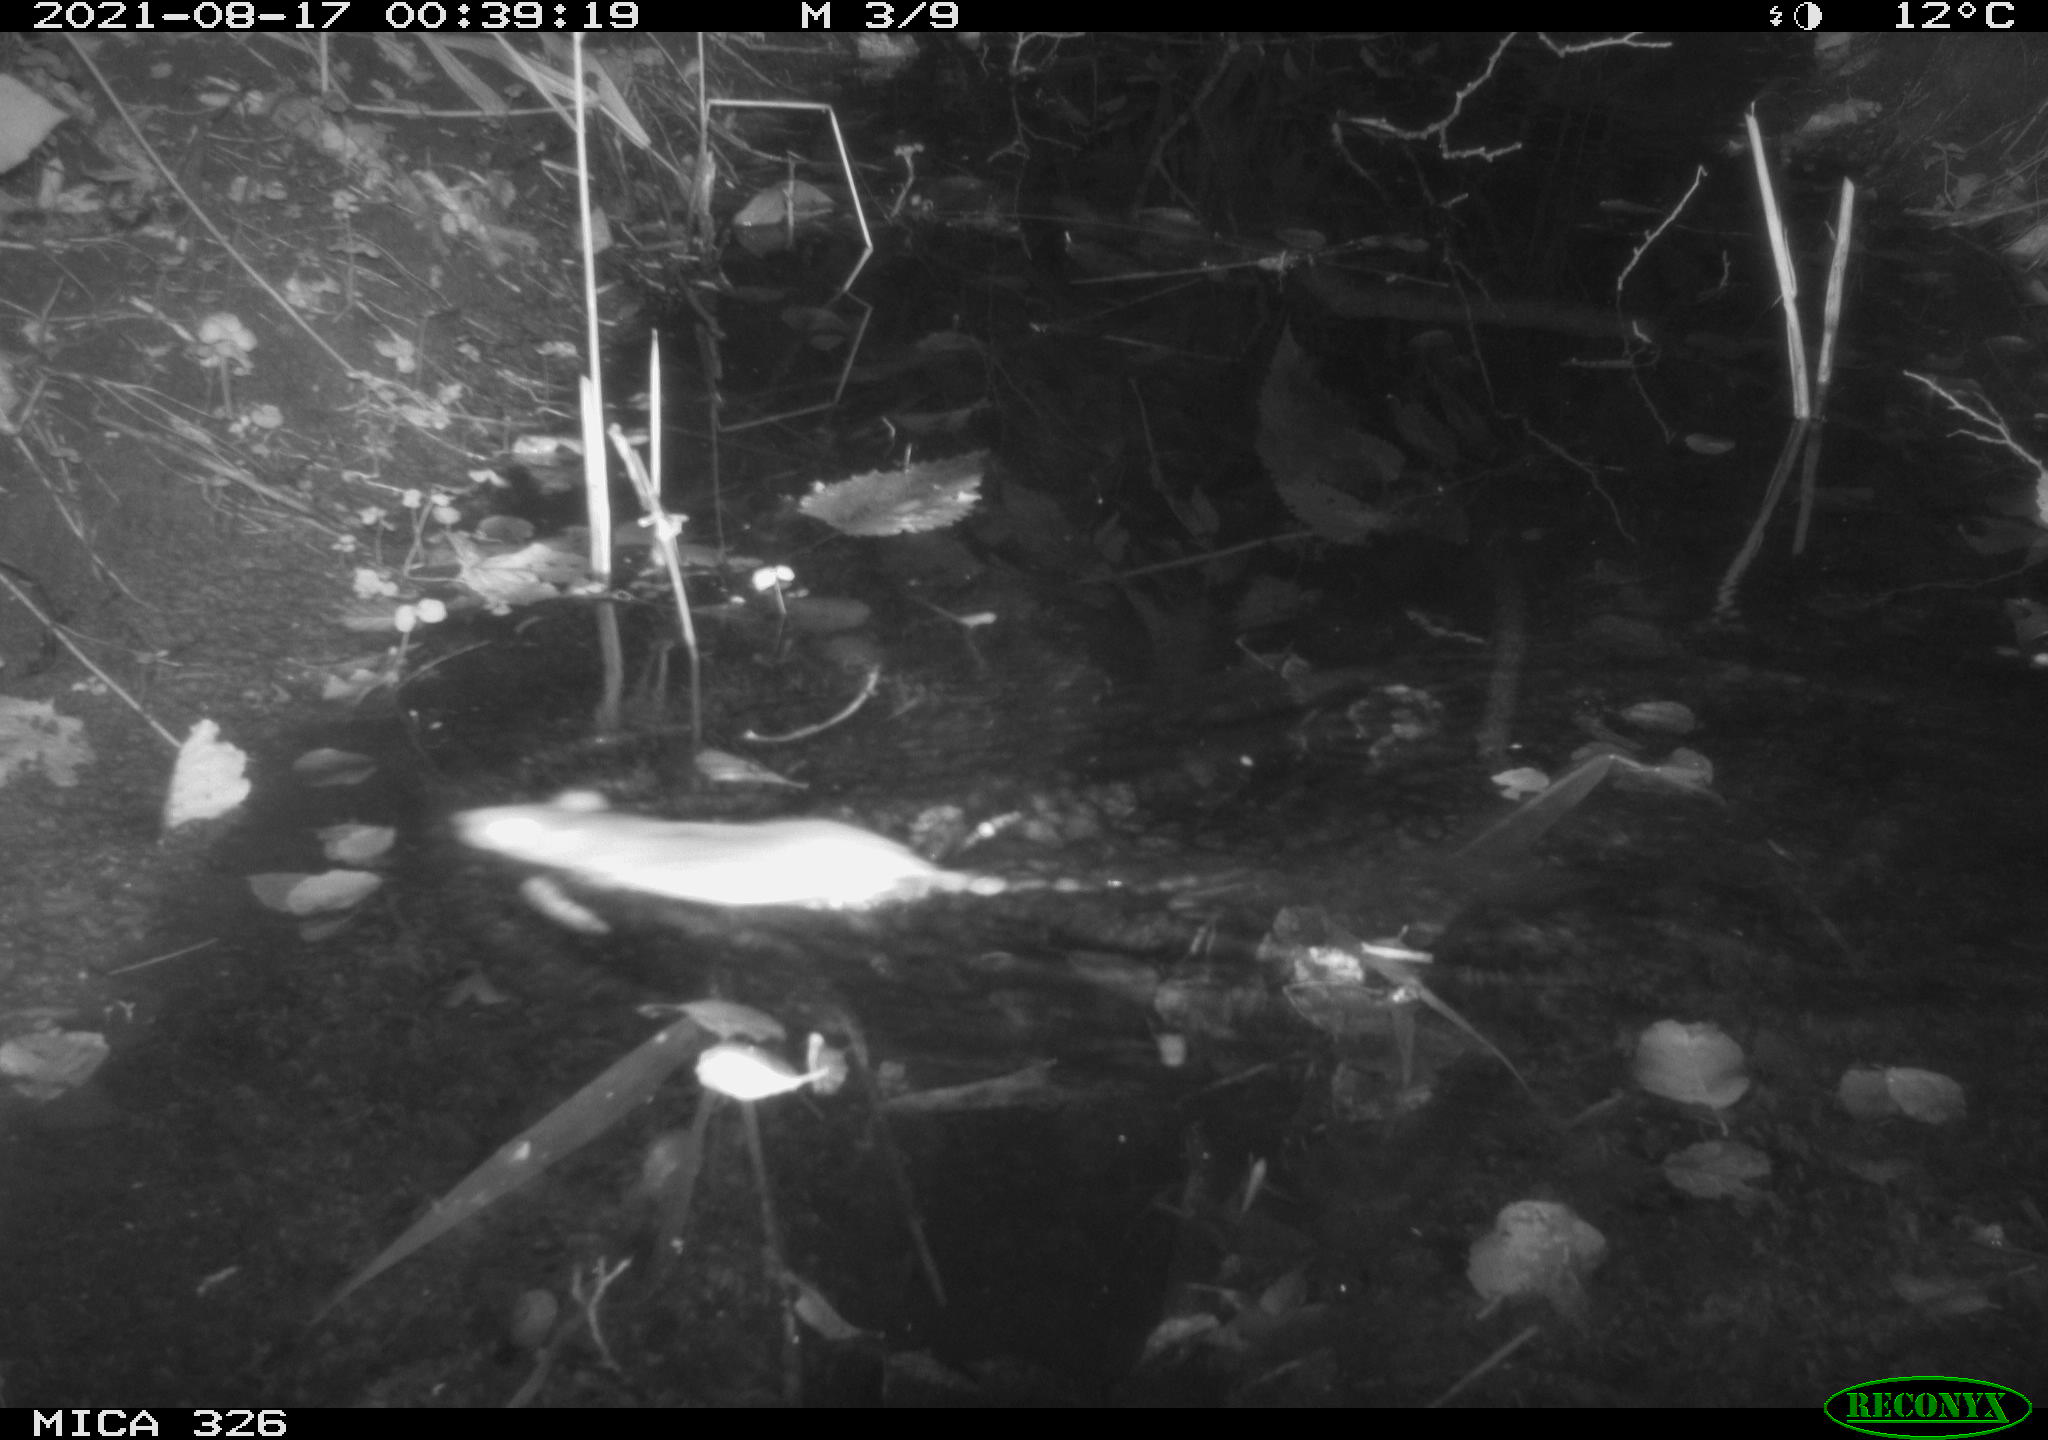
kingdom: Animalia
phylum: Chordata
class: Mammalia
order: Rodentia
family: Muridae
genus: Rattus
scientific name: Rattus norvegicus
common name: Brown rat
